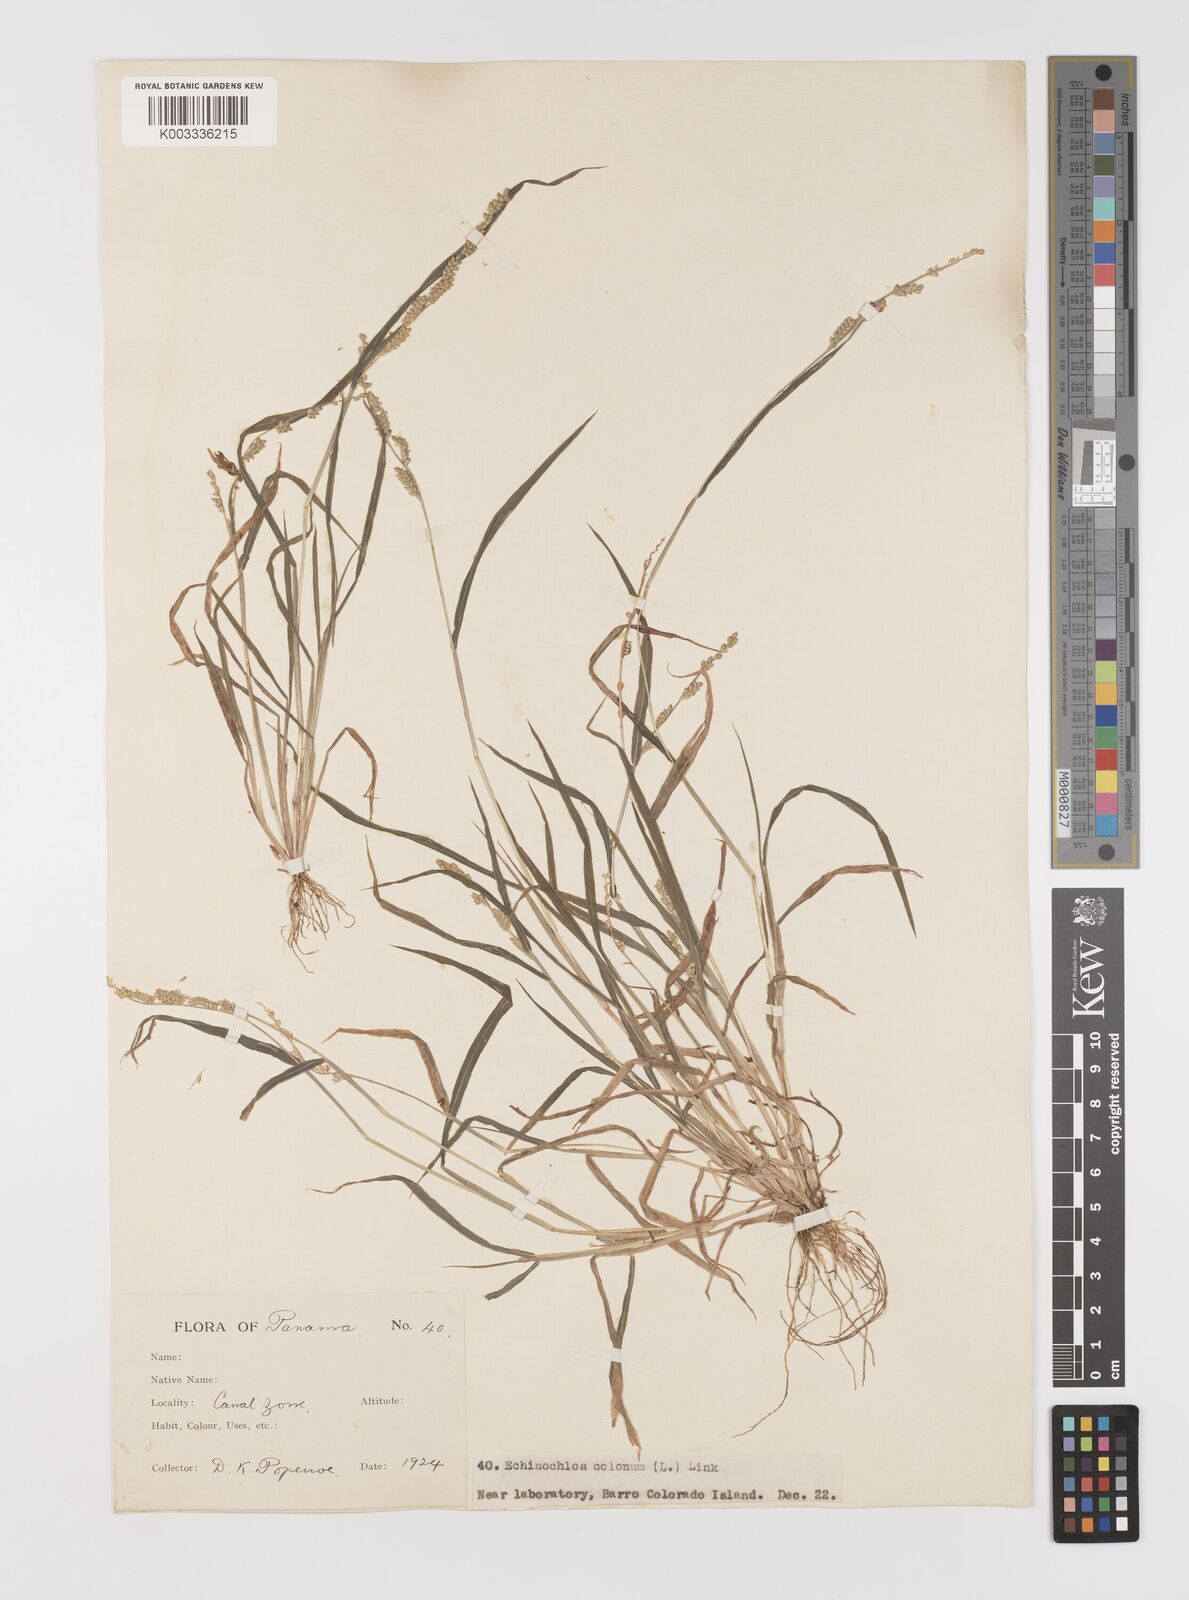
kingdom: Plantae
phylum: Tracheophyta
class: Liliopsida
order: Poales
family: Poaceae
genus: Echinochloa
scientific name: Echinochloa colonum
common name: Jungle rice
